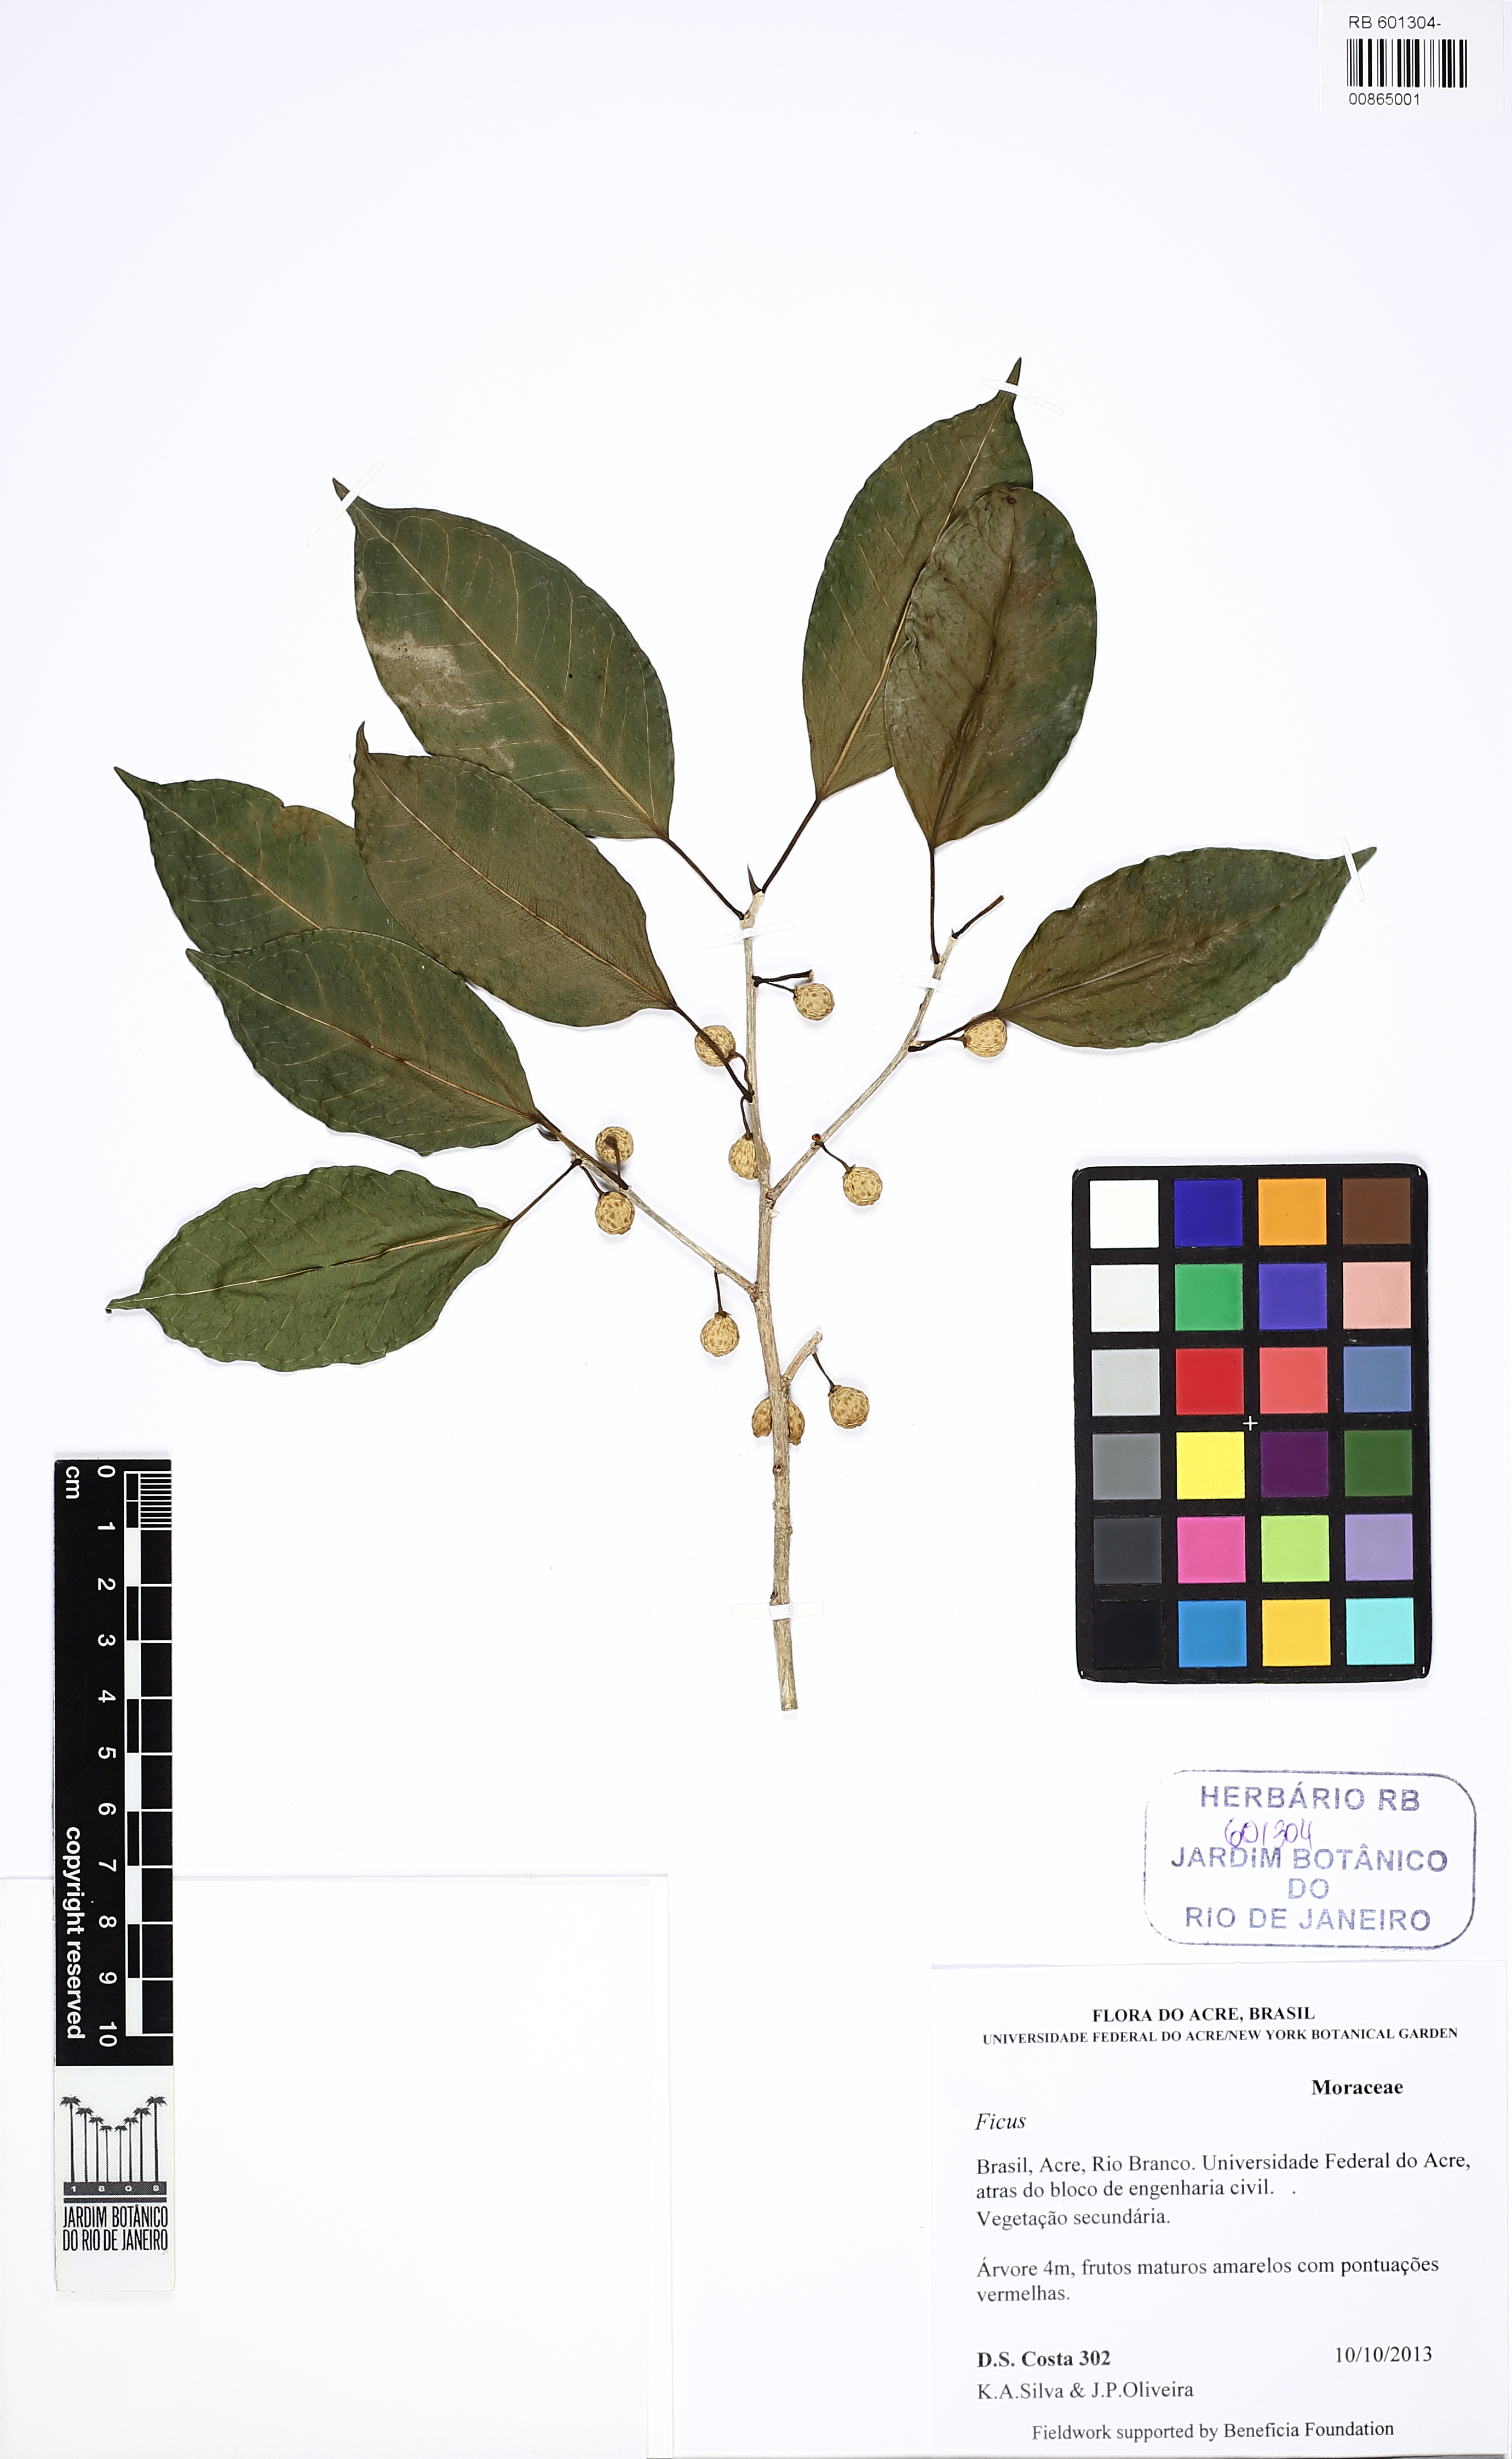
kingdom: Plantae
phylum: Tracheophyta
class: Magnoliopsida
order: Rosales
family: Moraceae
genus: Ficus
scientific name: Ficus pertusa
